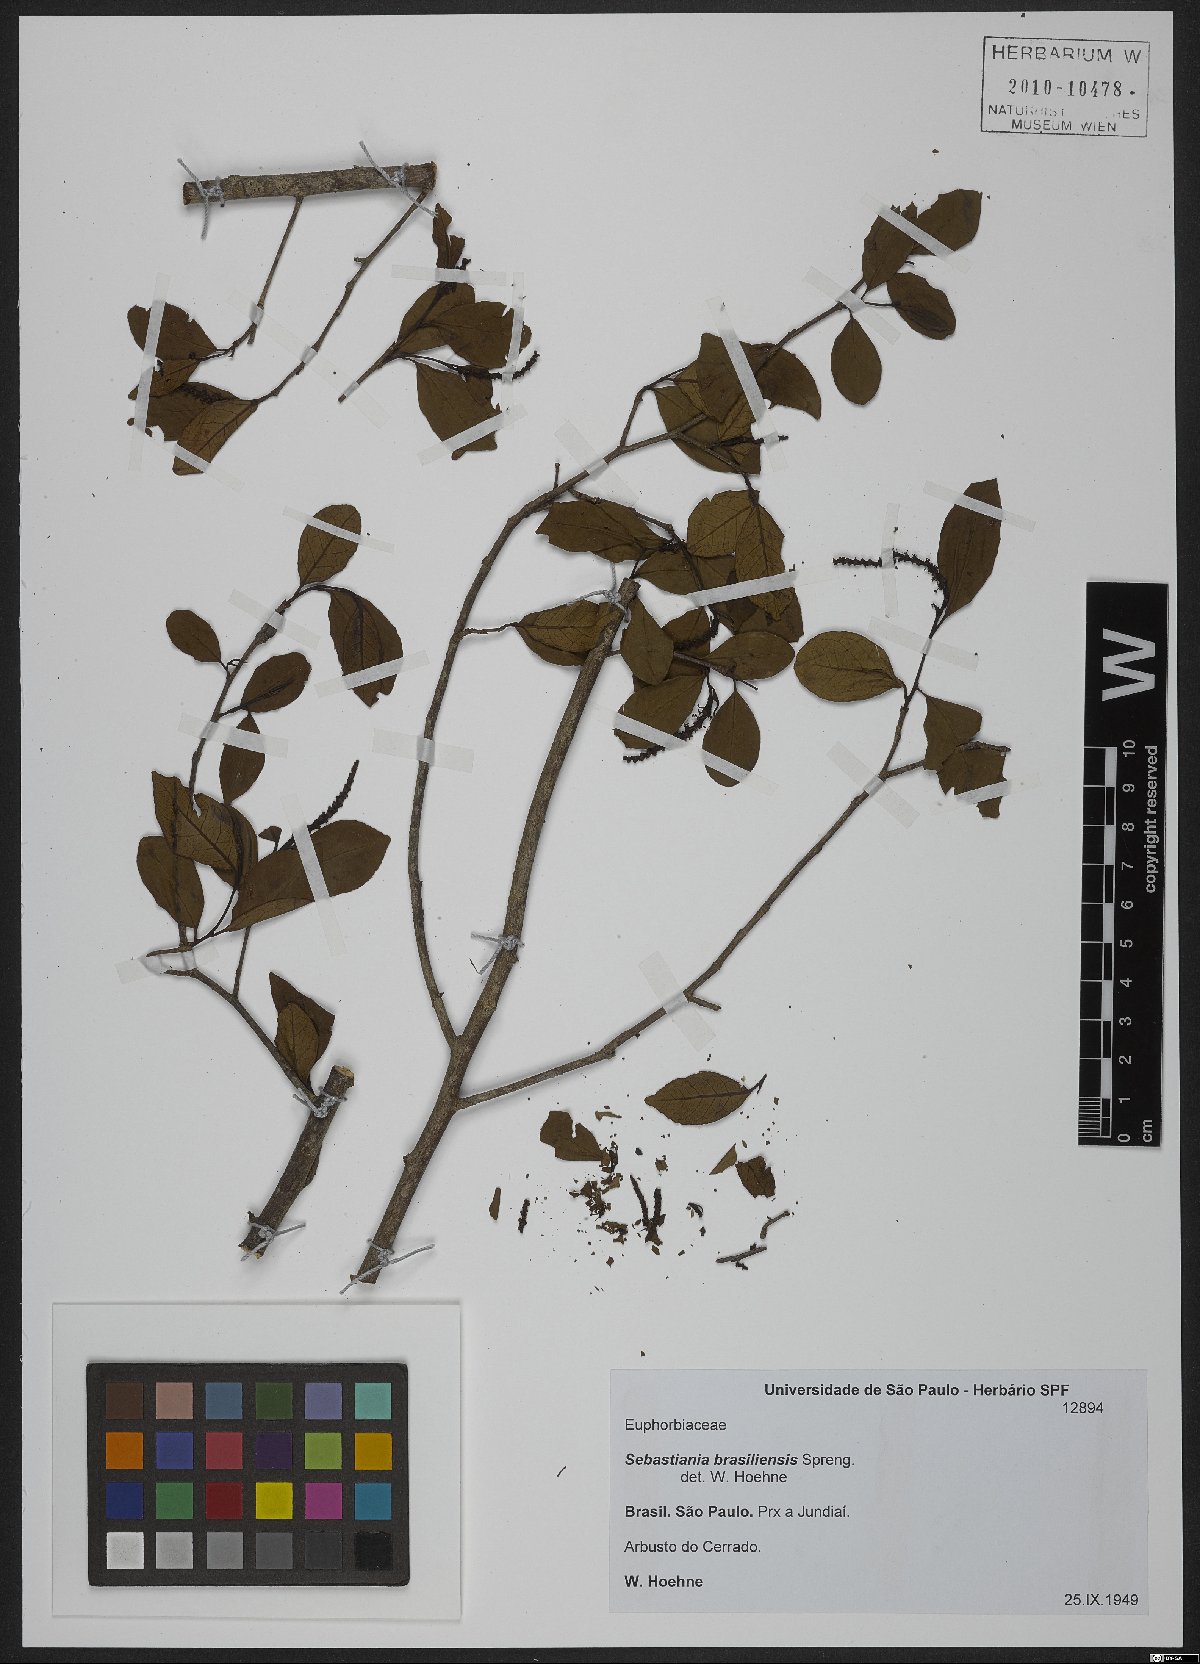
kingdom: Plantae
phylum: Tracheophyta
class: Magnoliopsida
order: Malpighiales
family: Euphorbiaceae
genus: Sebastiania
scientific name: Sebastiania brasiliensis
